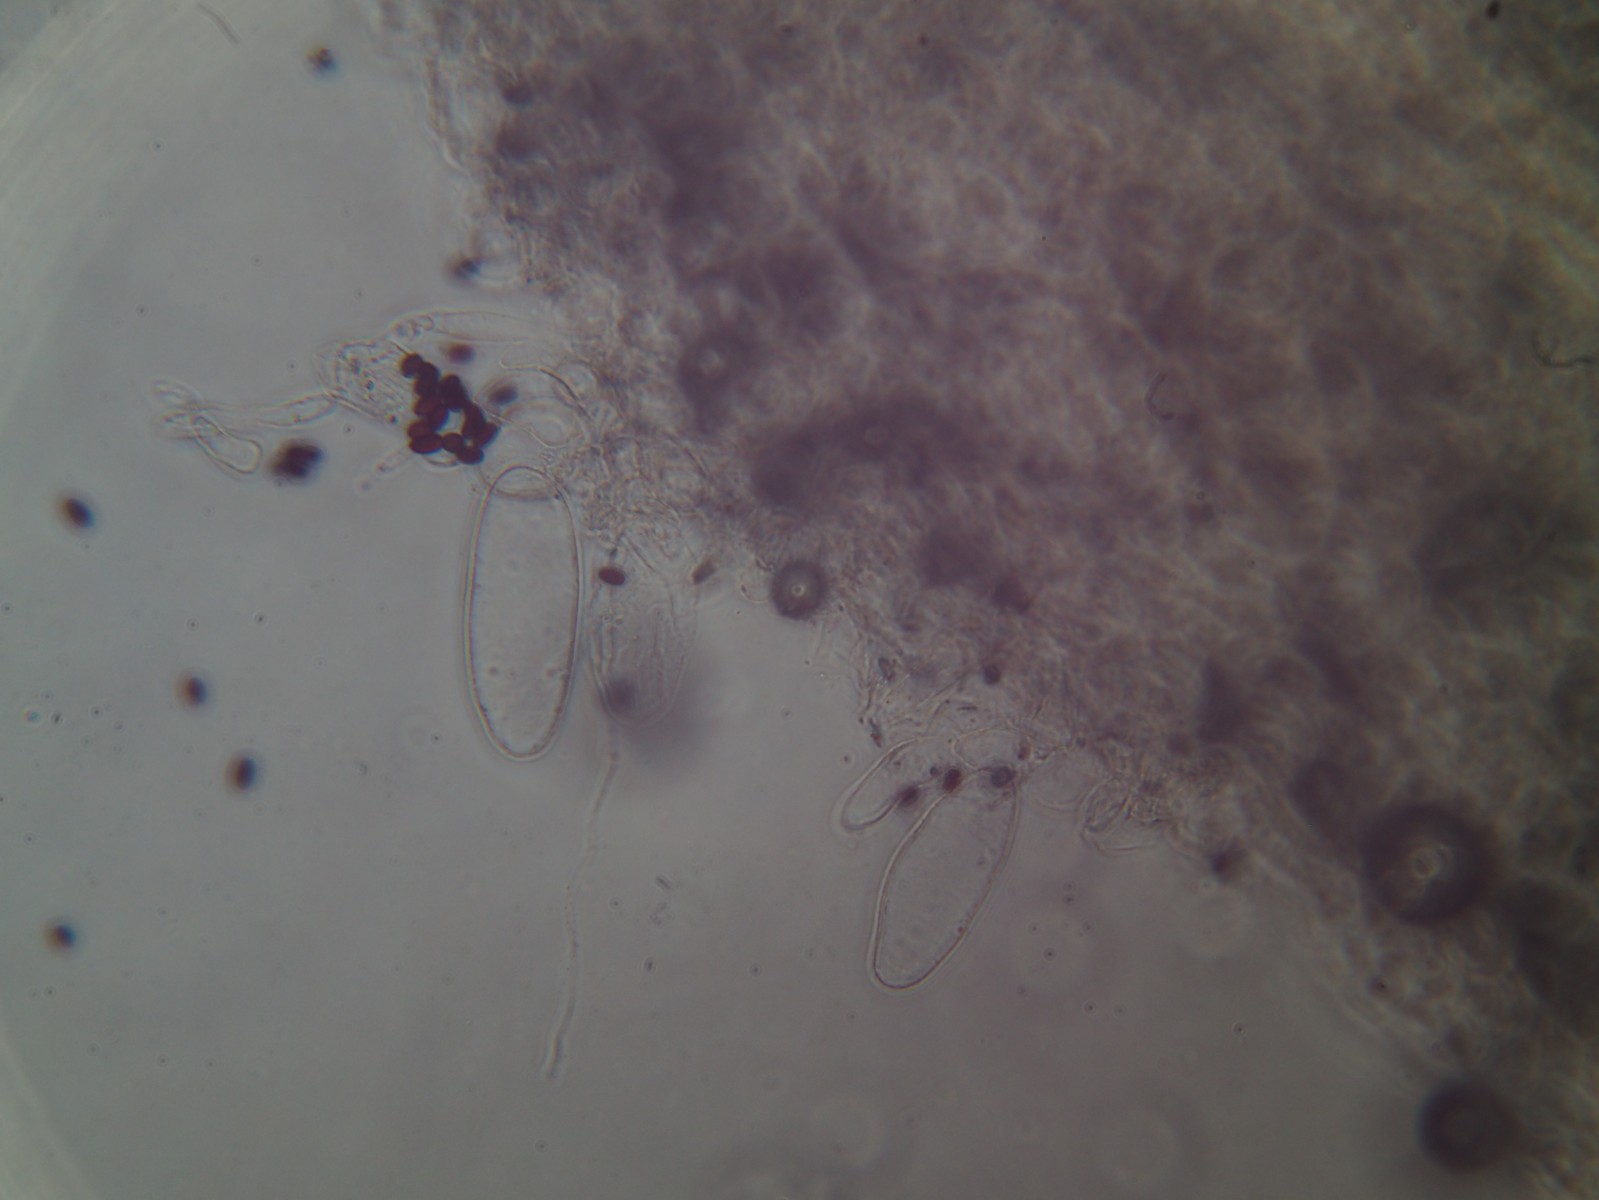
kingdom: Fungi
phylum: Basidiomycota
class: Agaricomycetes
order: Agaricales
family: Psathyrellaceae
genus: Coprinellus
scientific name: Coprinellus flocculosus
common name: fnugget blækhat
